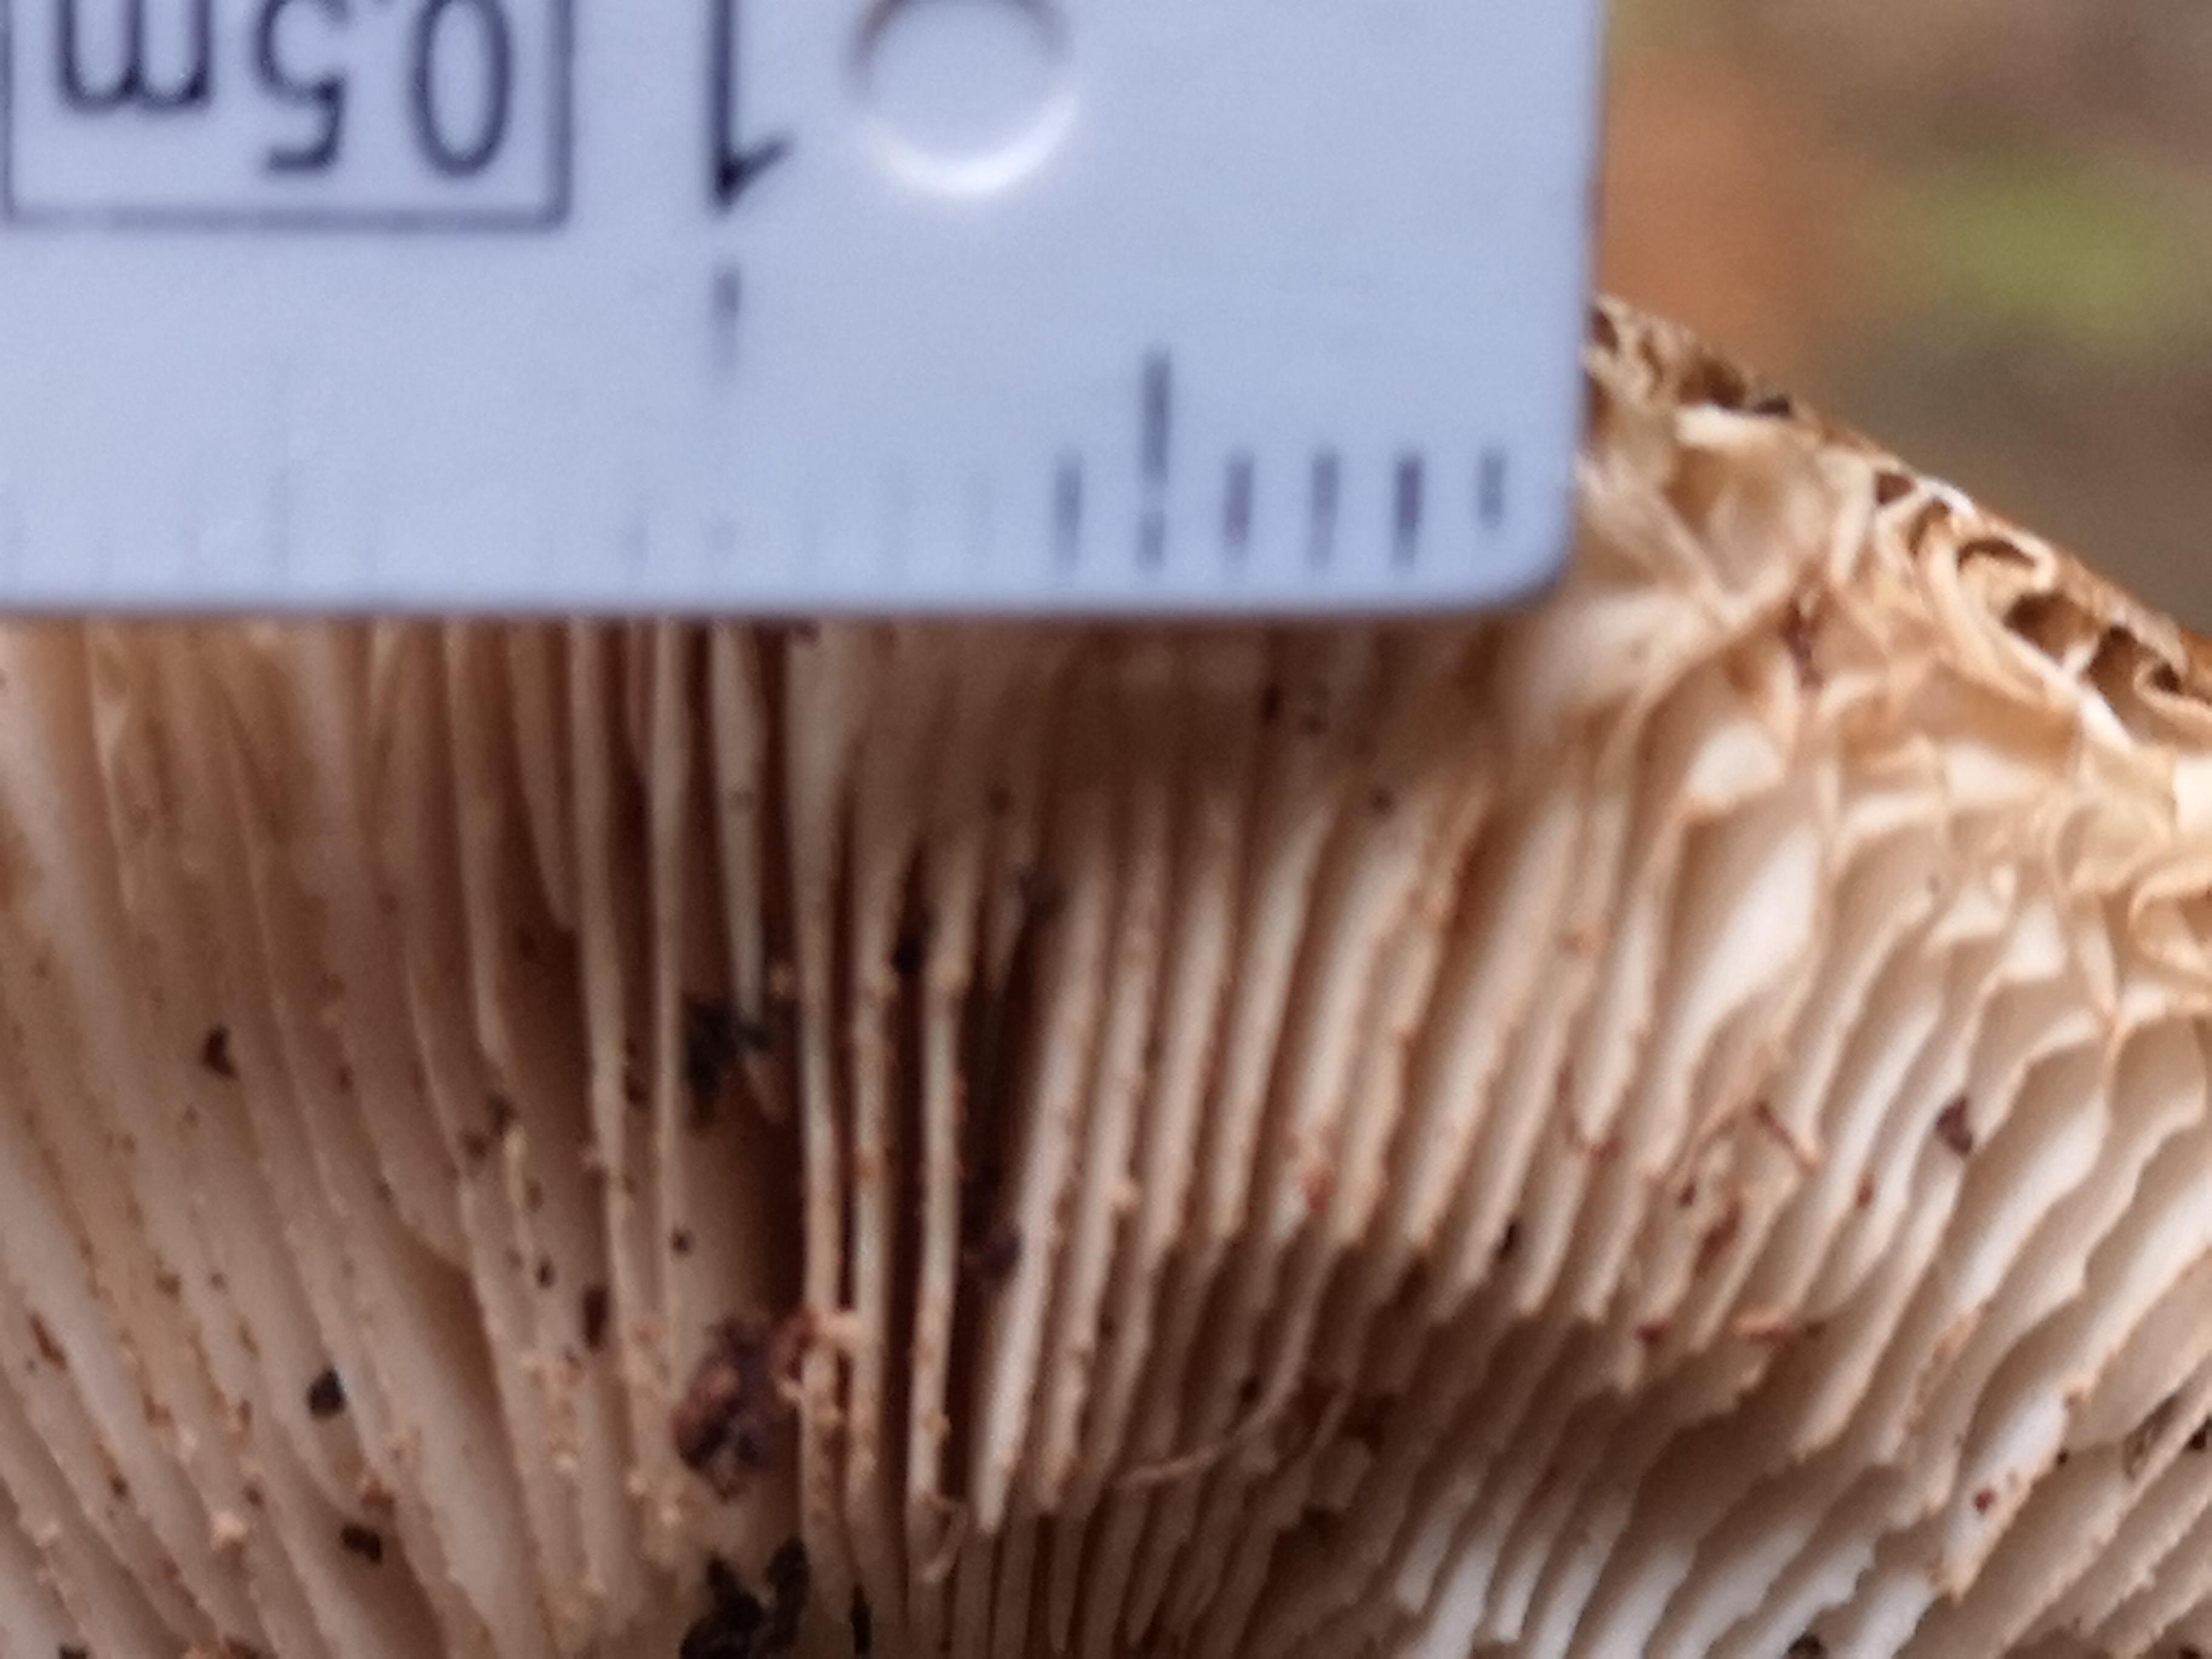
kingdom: Fungi
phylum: Basidiomycota
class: Agaricomycetes
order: Agaricales
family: Pluteaceae
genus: Pluteus
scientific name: Pluteus cervinus
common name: sodfarvet skærmhat
